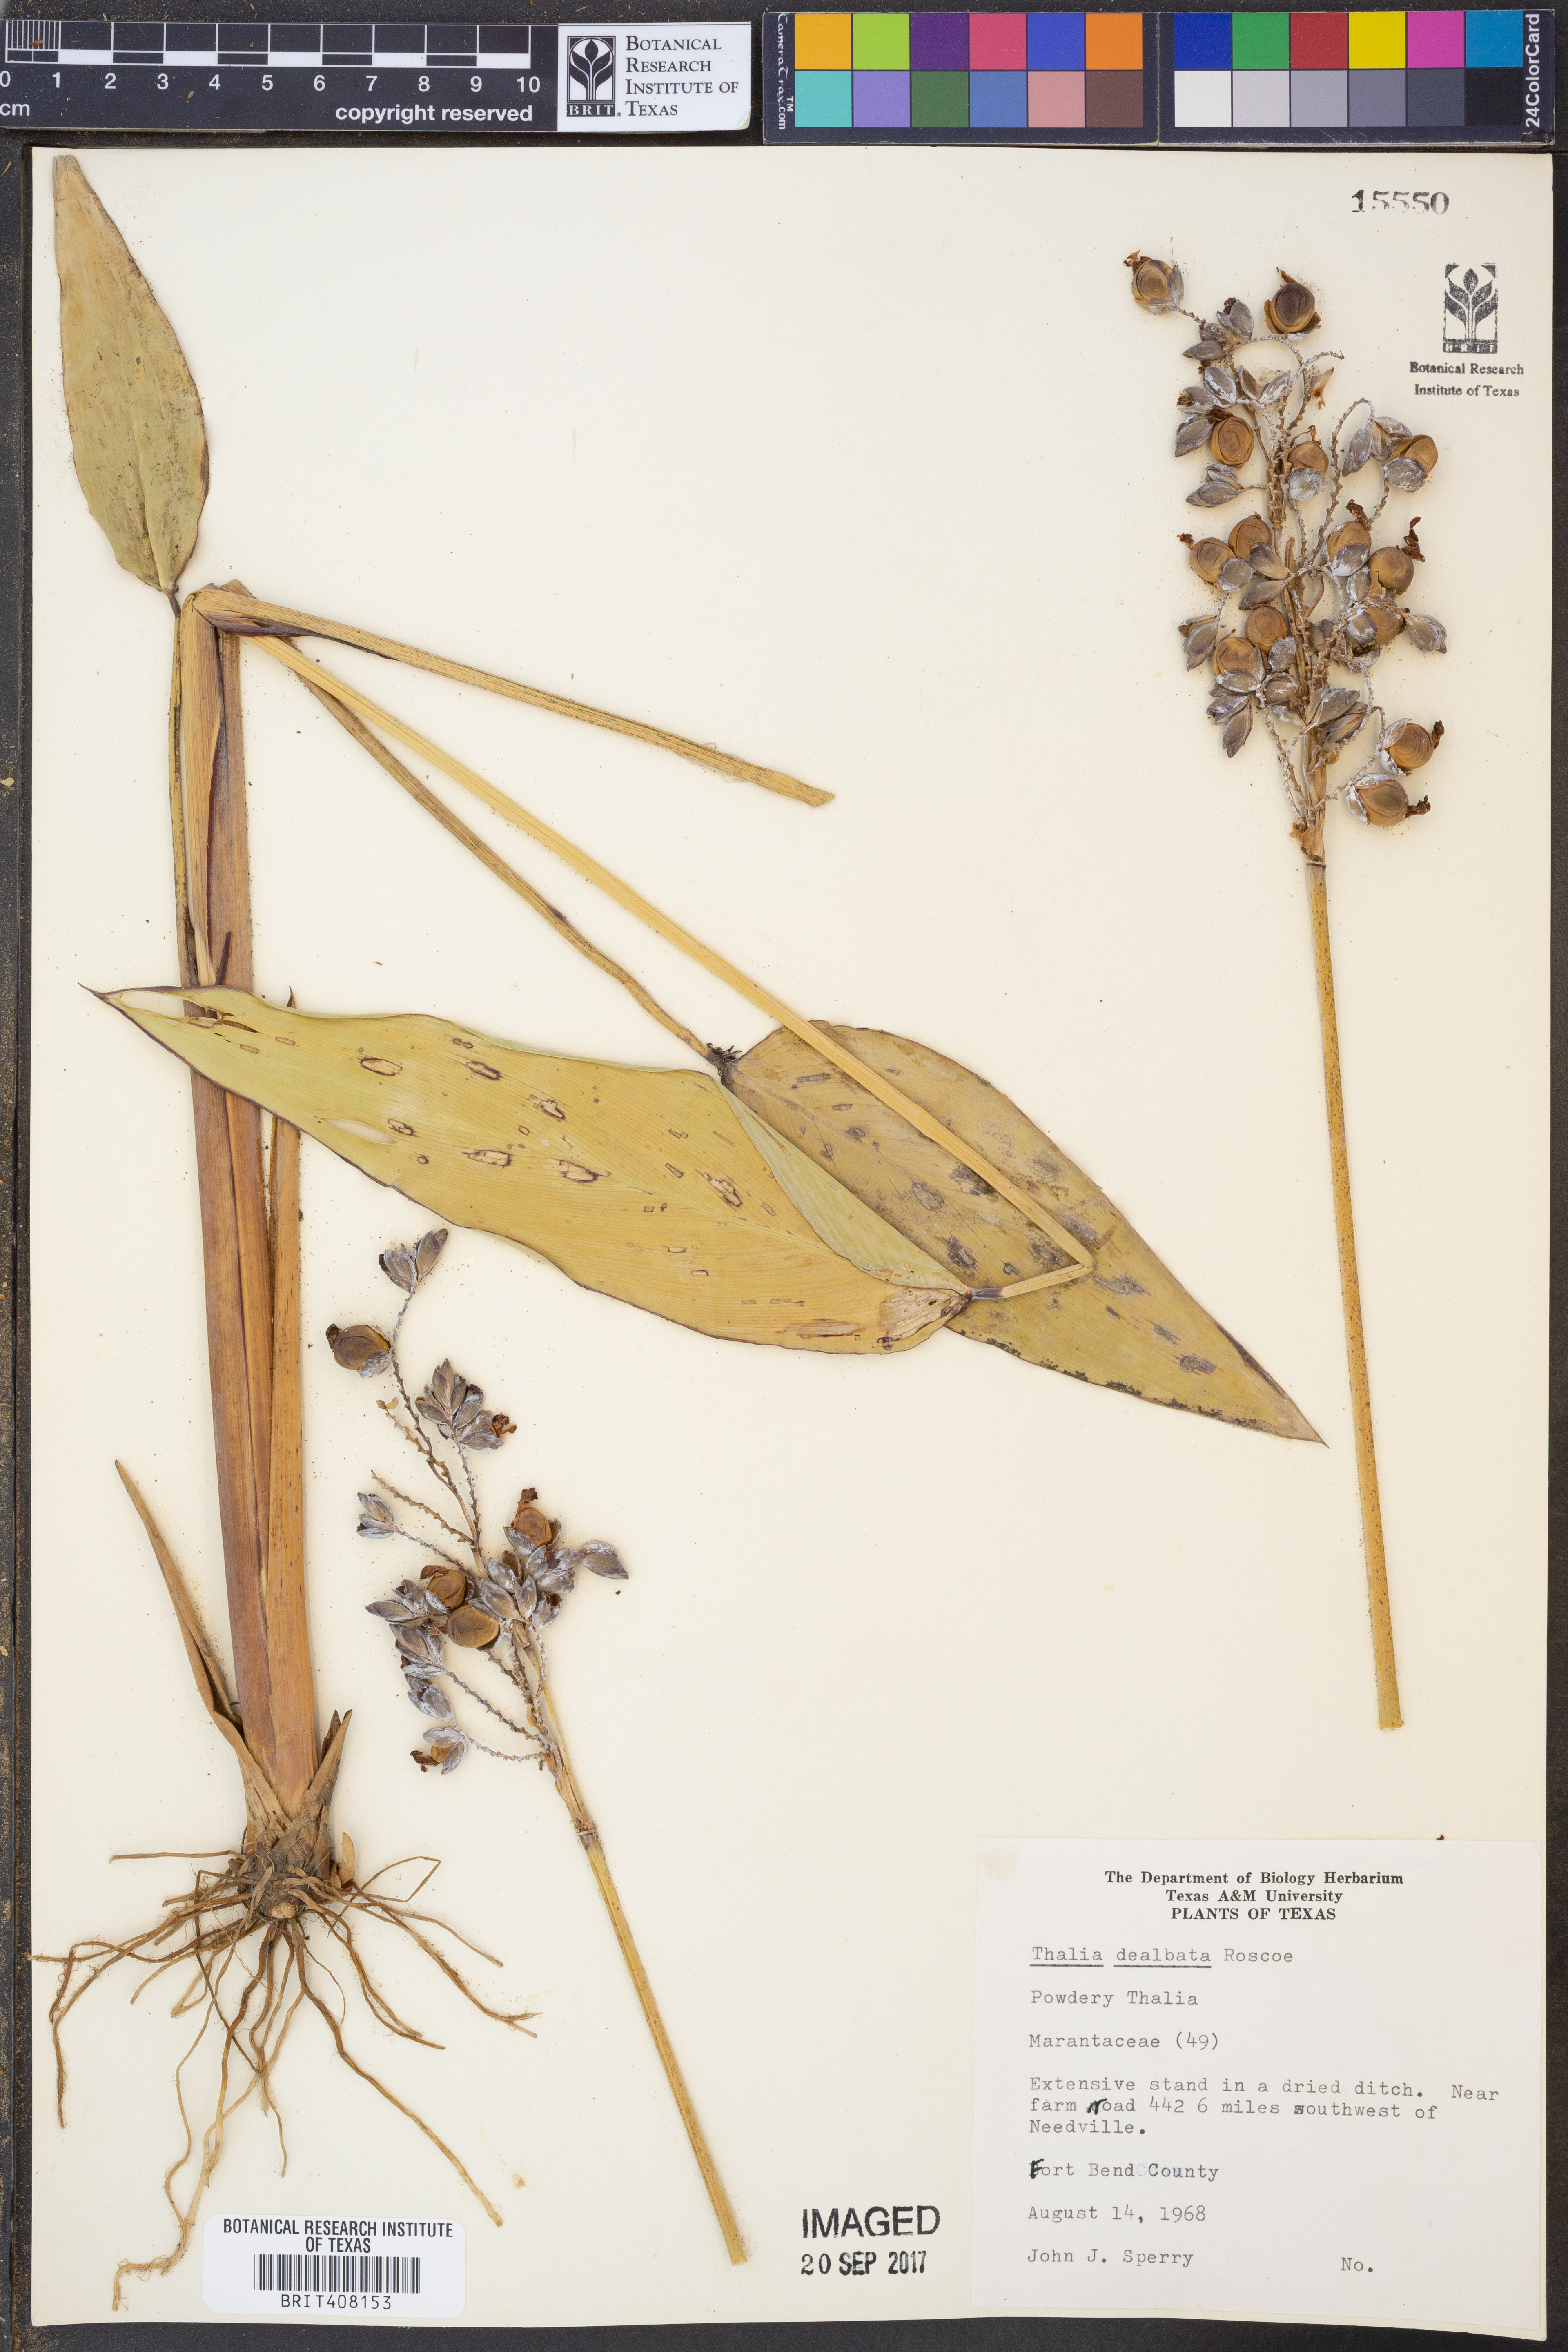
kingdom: Plantae
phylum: Tracheophyta
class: Liliopsida
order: Zingiberales
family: Marantaceae
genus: Thalia
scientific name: Thalia dealbata
